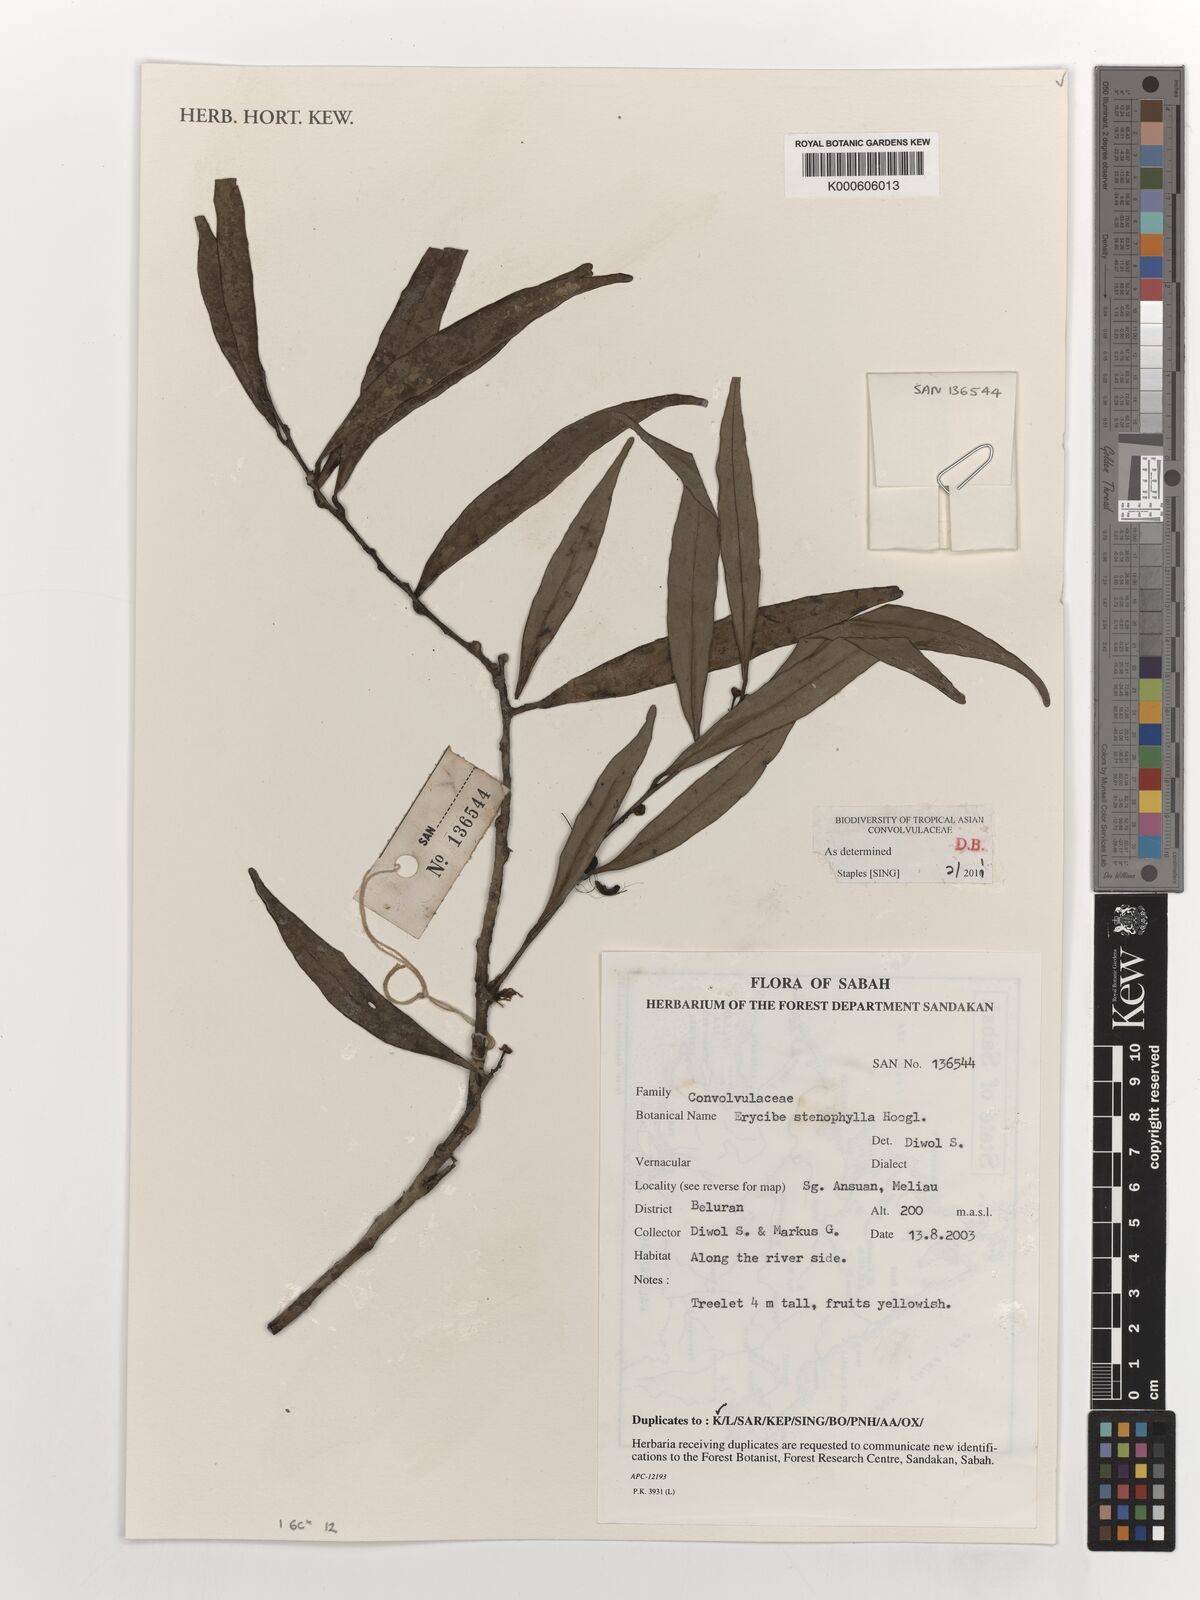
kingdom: Plantae
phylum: Tracheophyta
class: Magnoliopsida
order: Solanales
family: Convolvulaceae
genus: Erycibe
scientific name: Erycibe stenophylla
